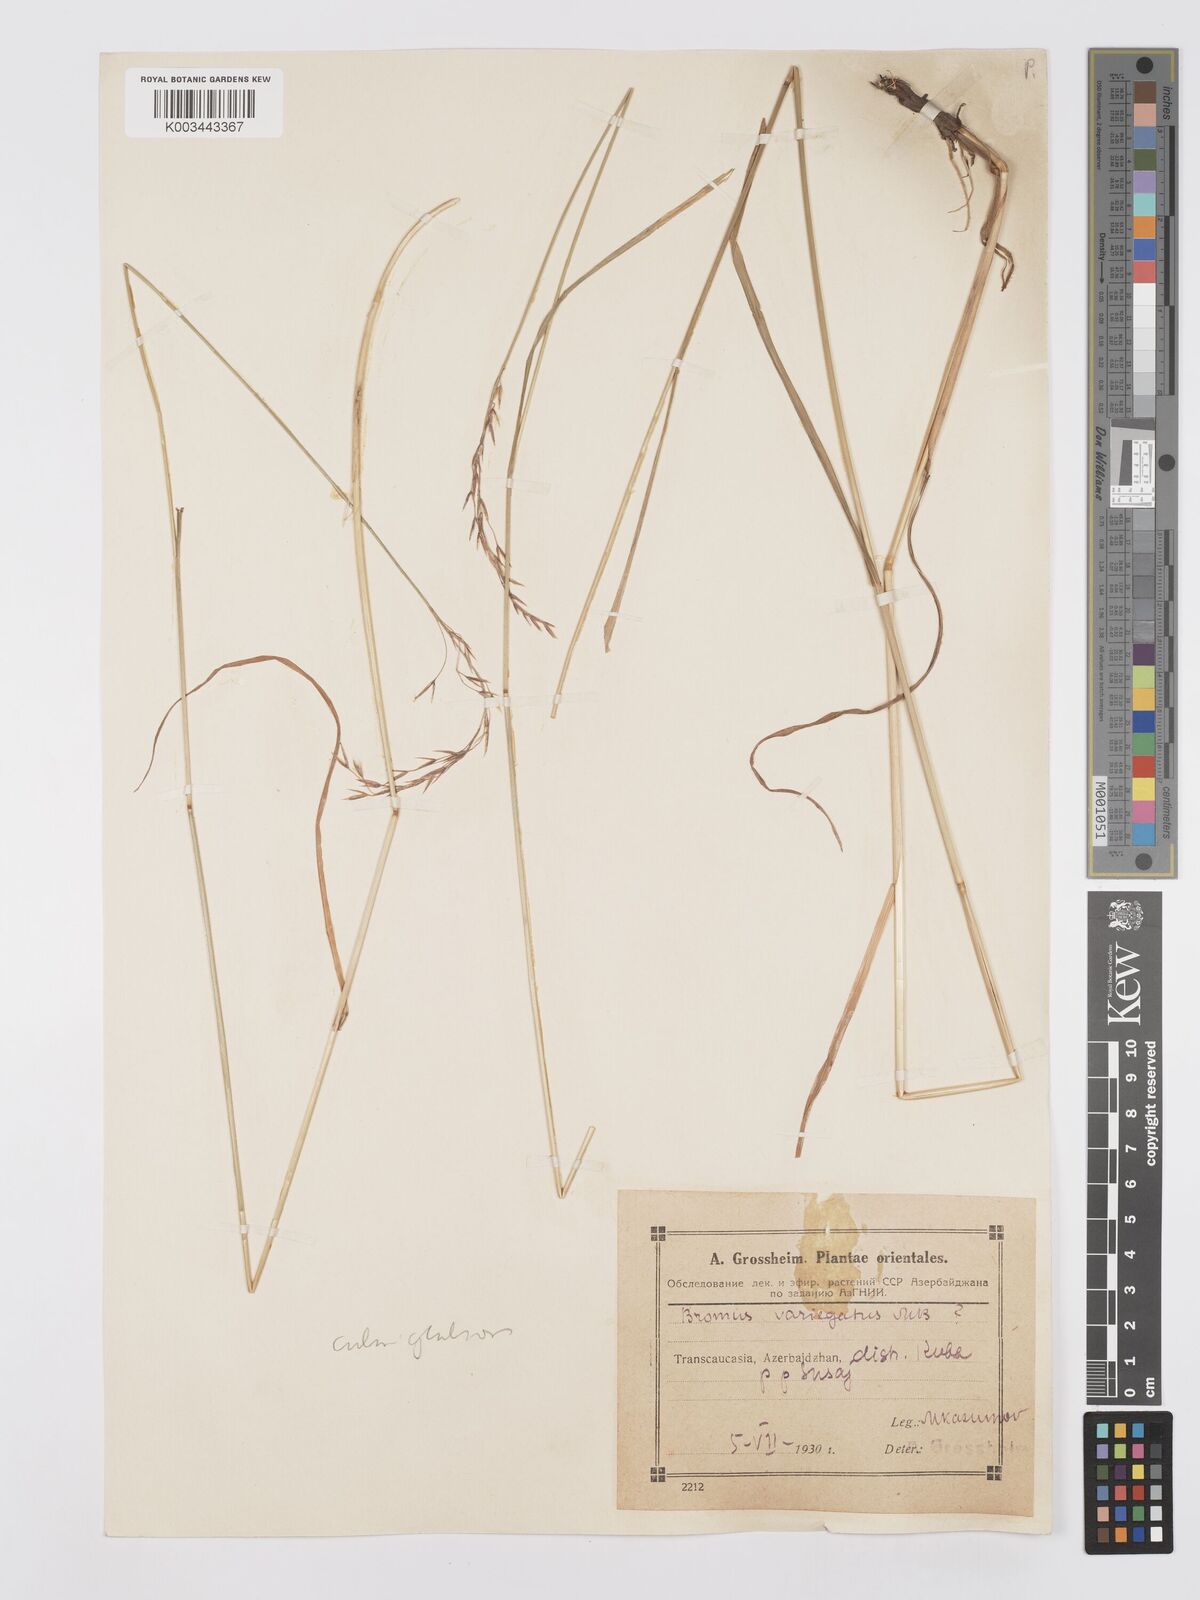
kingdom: Plantae
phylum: Tracheophyta
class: Liliopsida
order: Poales
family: Poaceae
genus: Bromus
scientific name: Bromus variegatus
